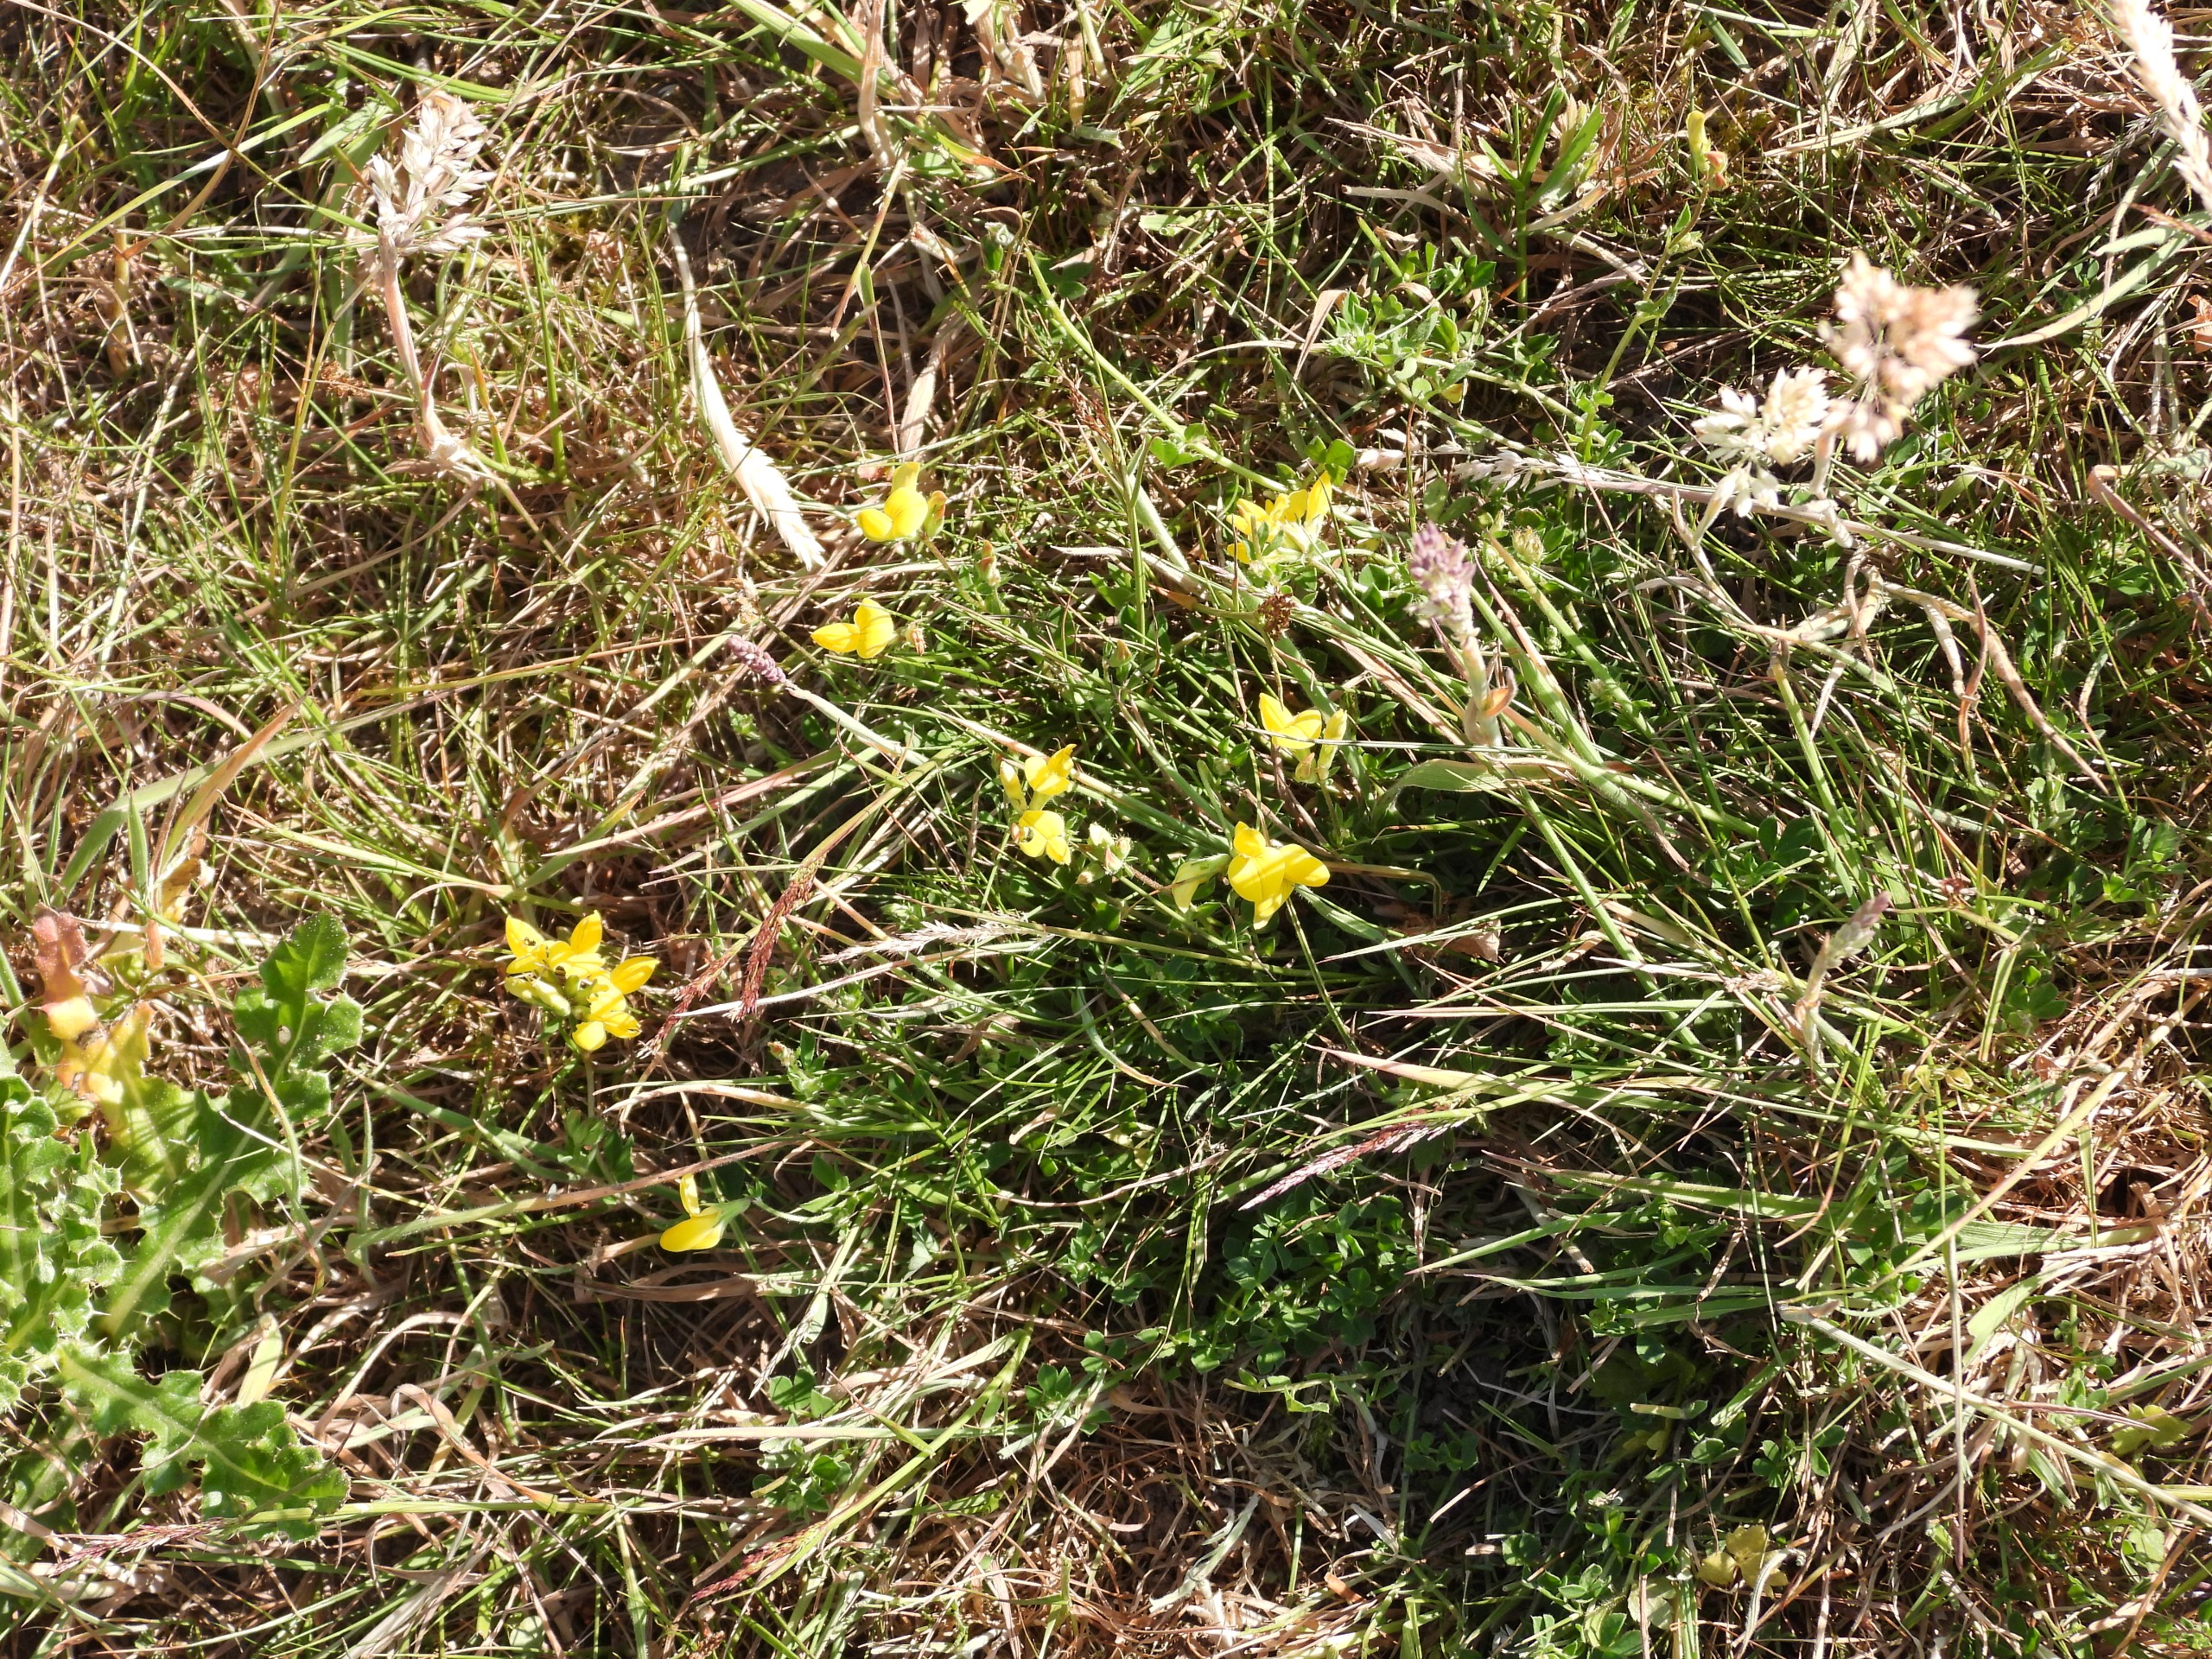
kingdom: Plantae
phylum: Tracheophyta
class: Magnoliopsida
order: Fabales
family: Fabaceae
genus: Lotus
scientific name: Lotus corniculatus
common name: Almindelig kællingetand
